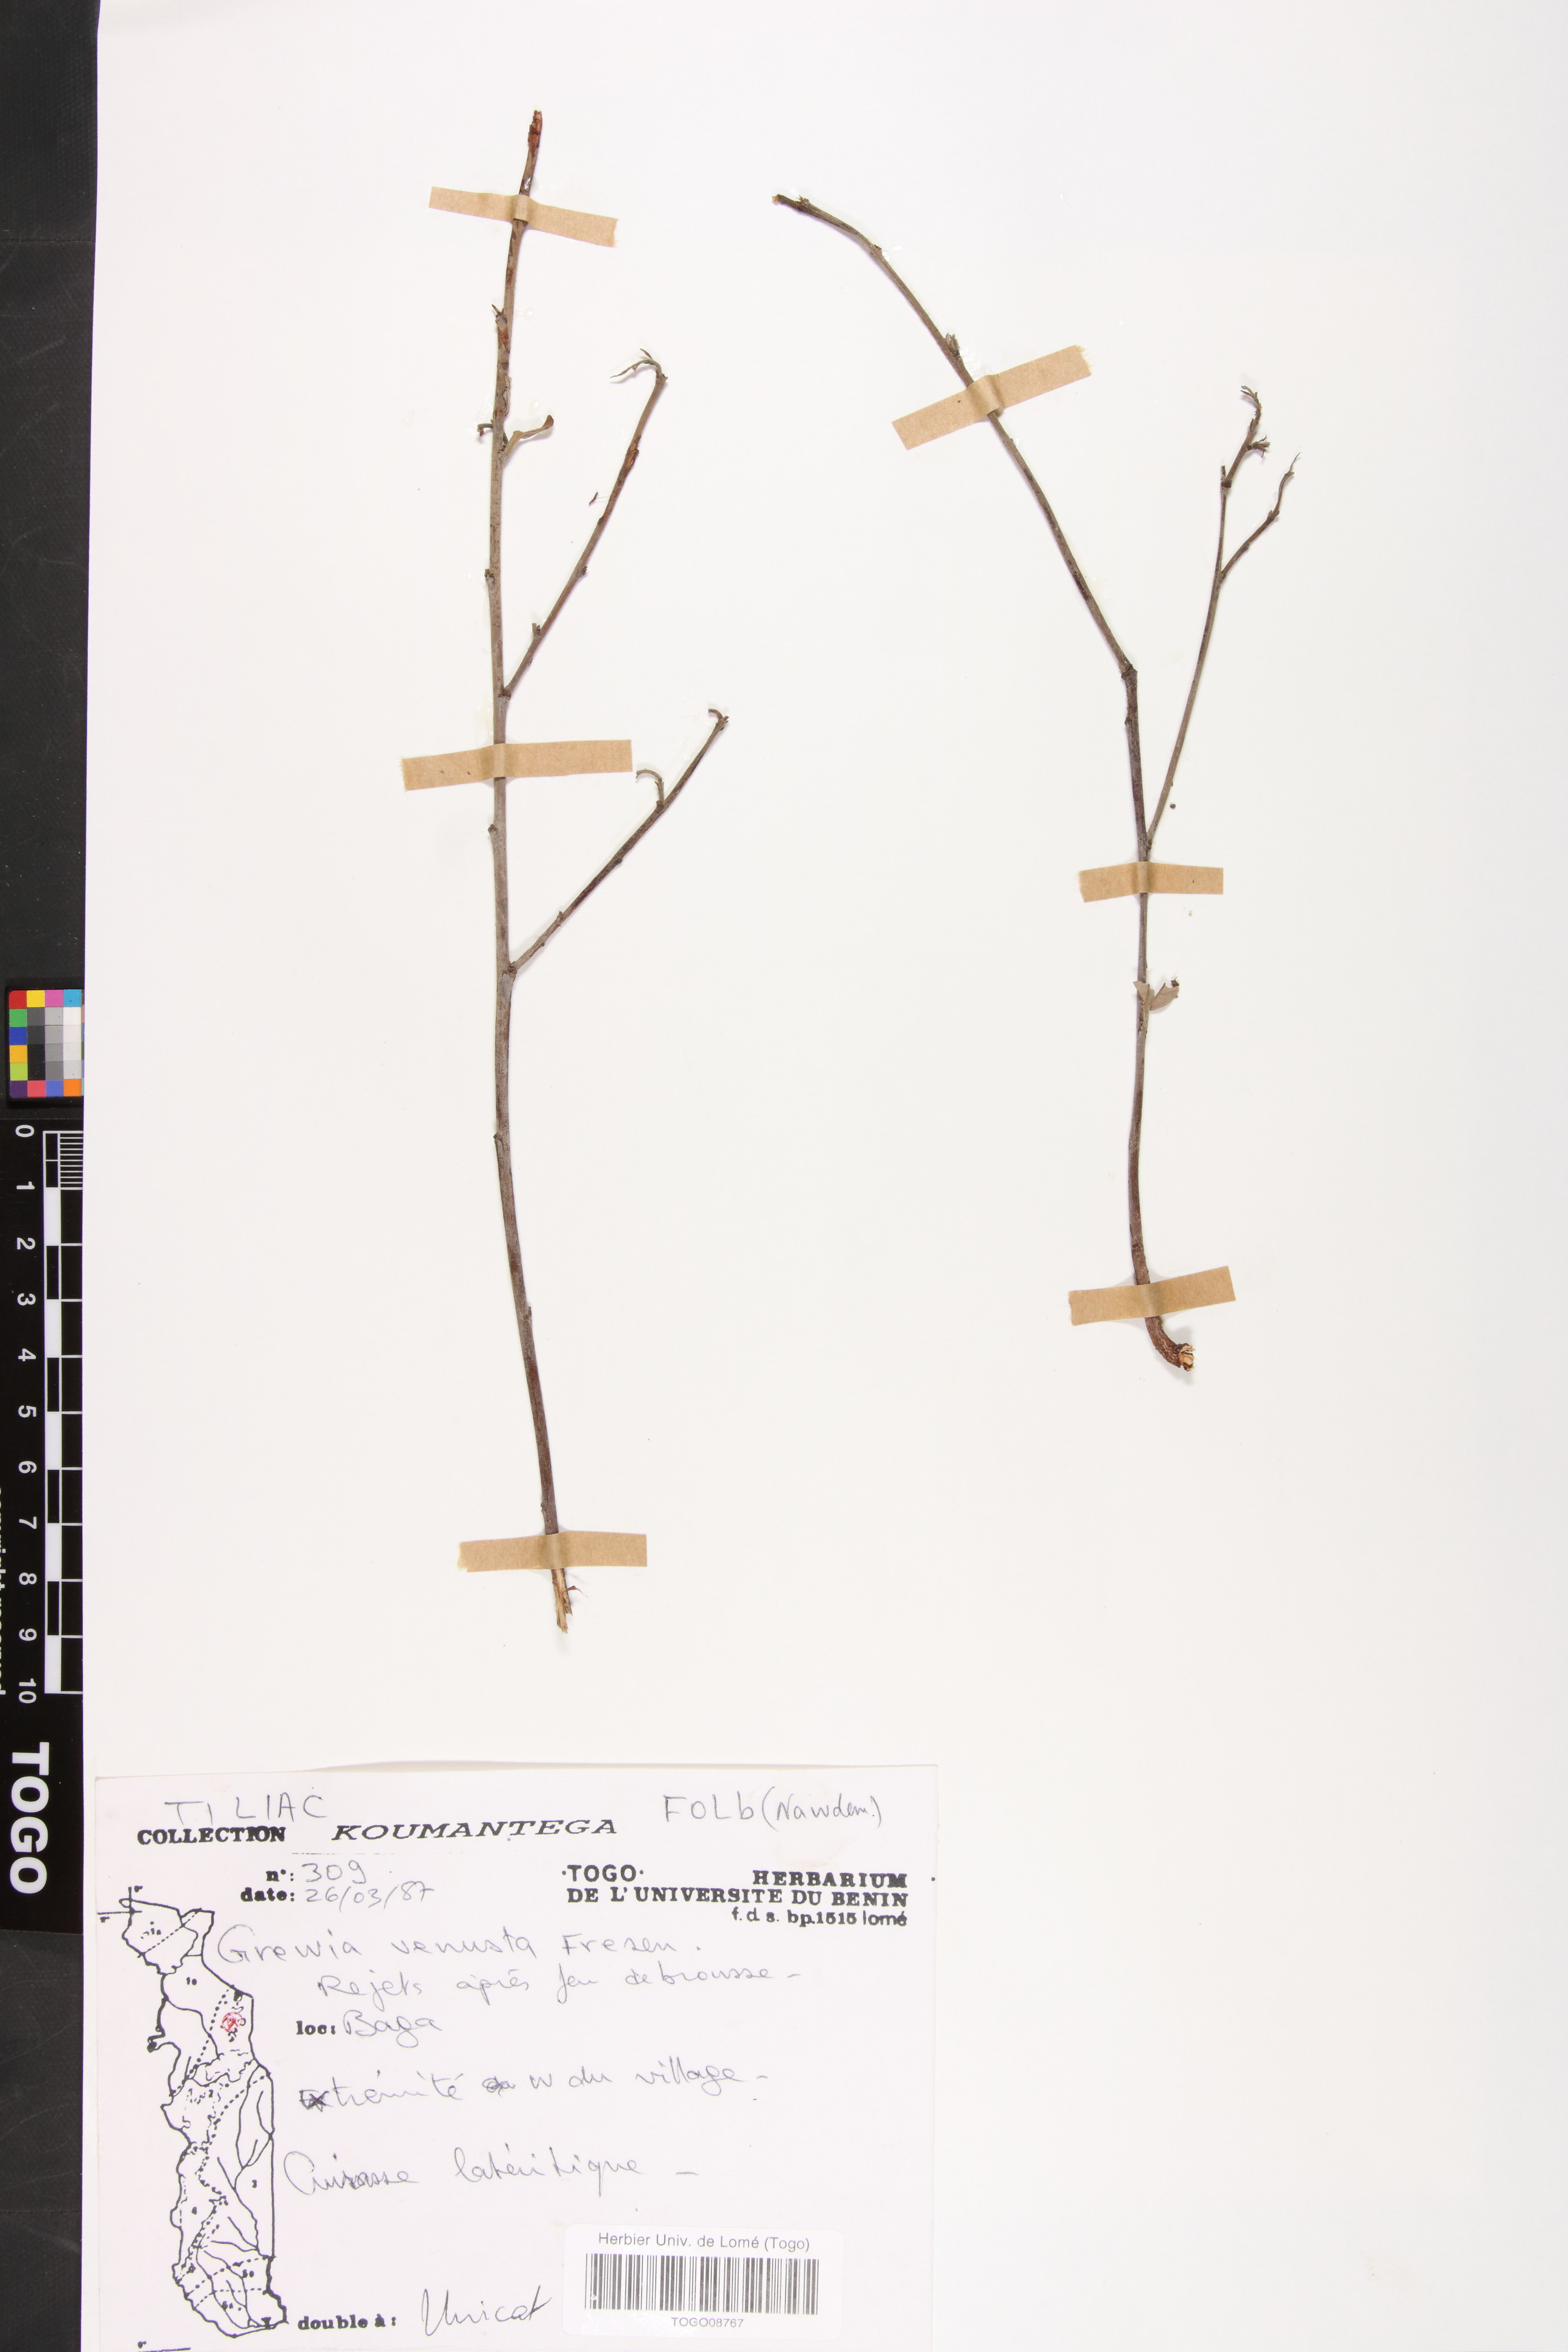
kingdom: Plantae
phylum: Tracheophyta
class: Magnoliopsida
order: Malvales
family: Malvaceae
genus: Grewia
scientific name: Grewia mollis
